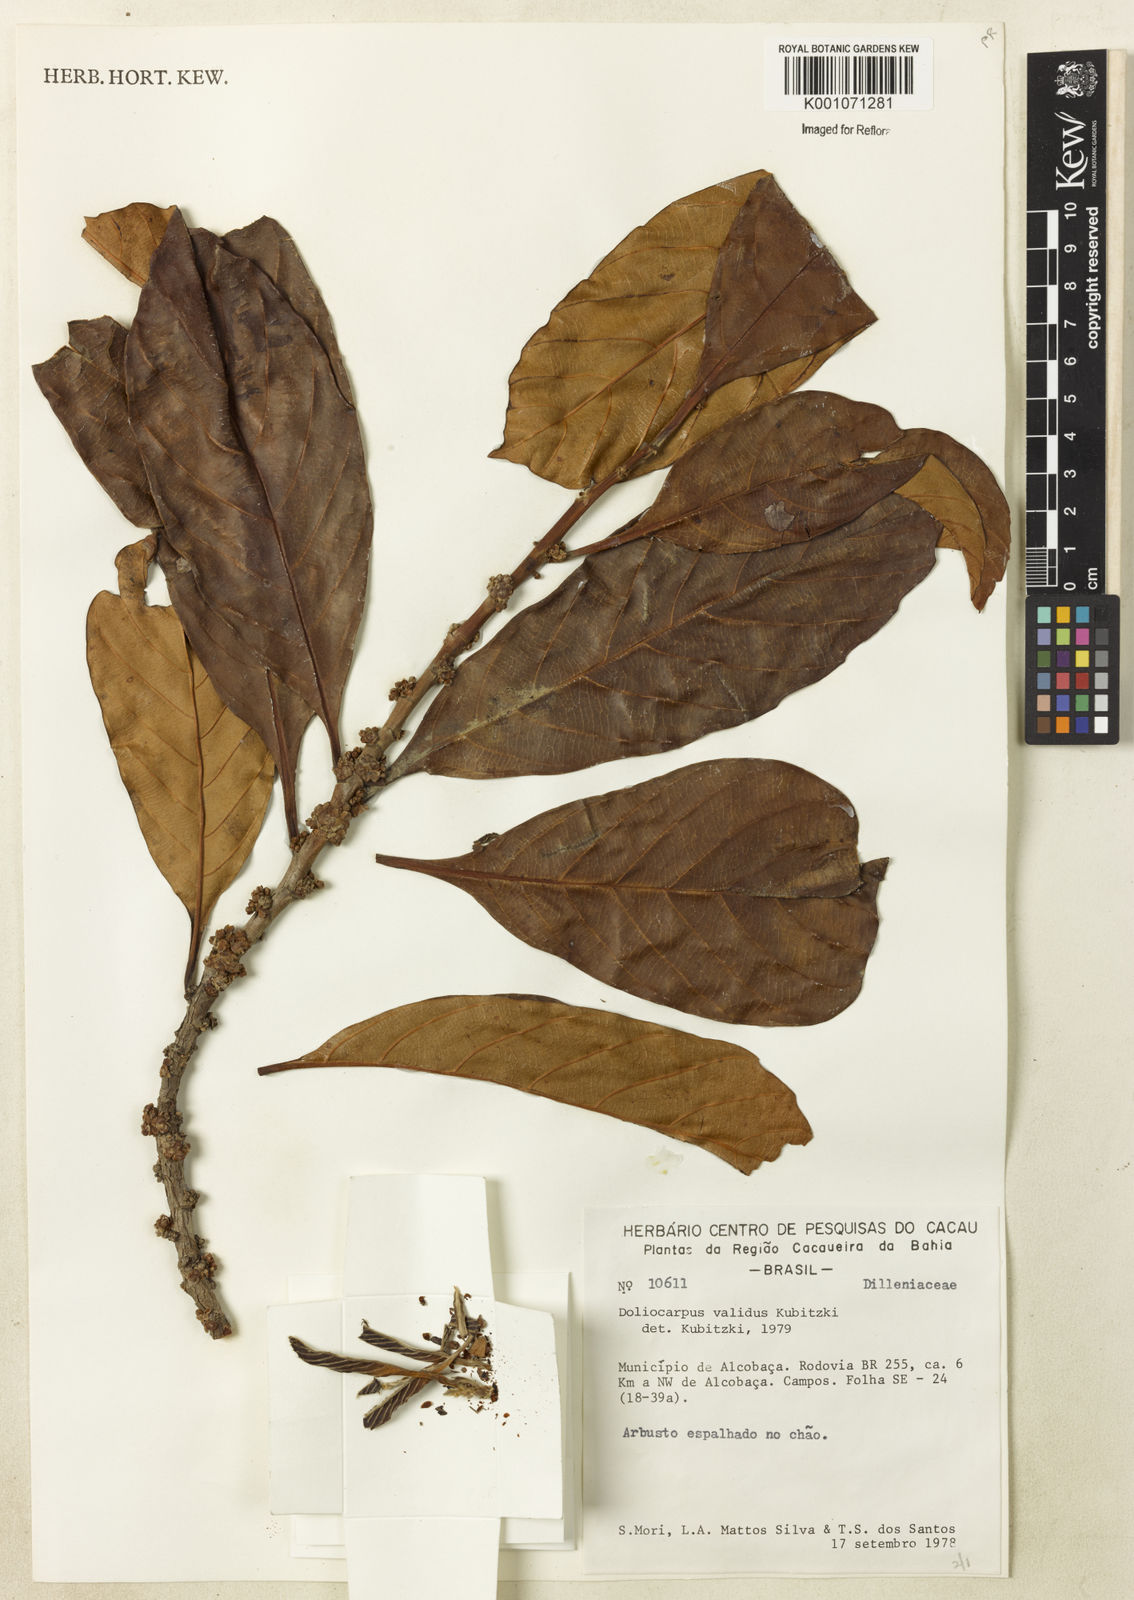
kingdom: Plantae
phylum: Tracheophyta
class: Magnoliopsida
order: Dilleniales
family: Dilleniaceae
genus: Doliocarpus
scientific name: Doliocarpus validus
